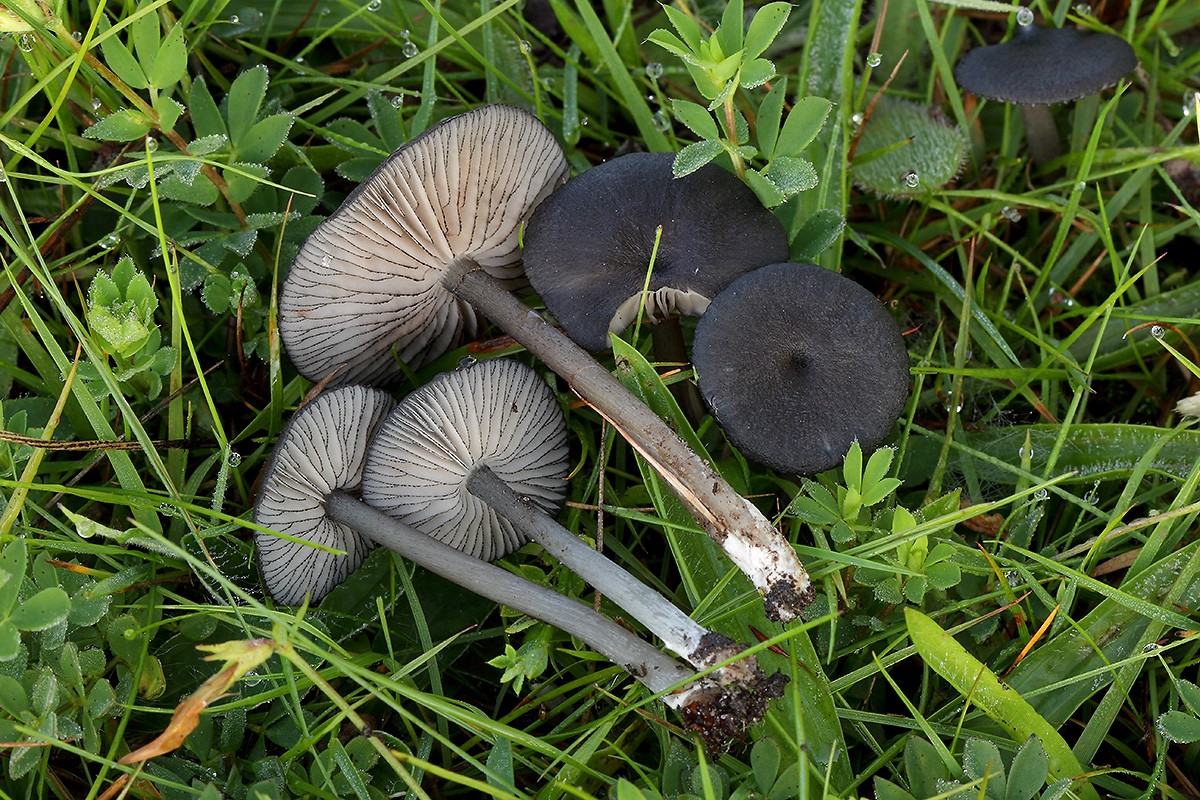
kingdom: Fungi
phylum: Basidiomycota
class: Agaricomycetes
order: Agaricales
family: Entolomataceae
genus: Entoloma
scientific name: Entoloma serrulatum
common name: savbladet rødblad
